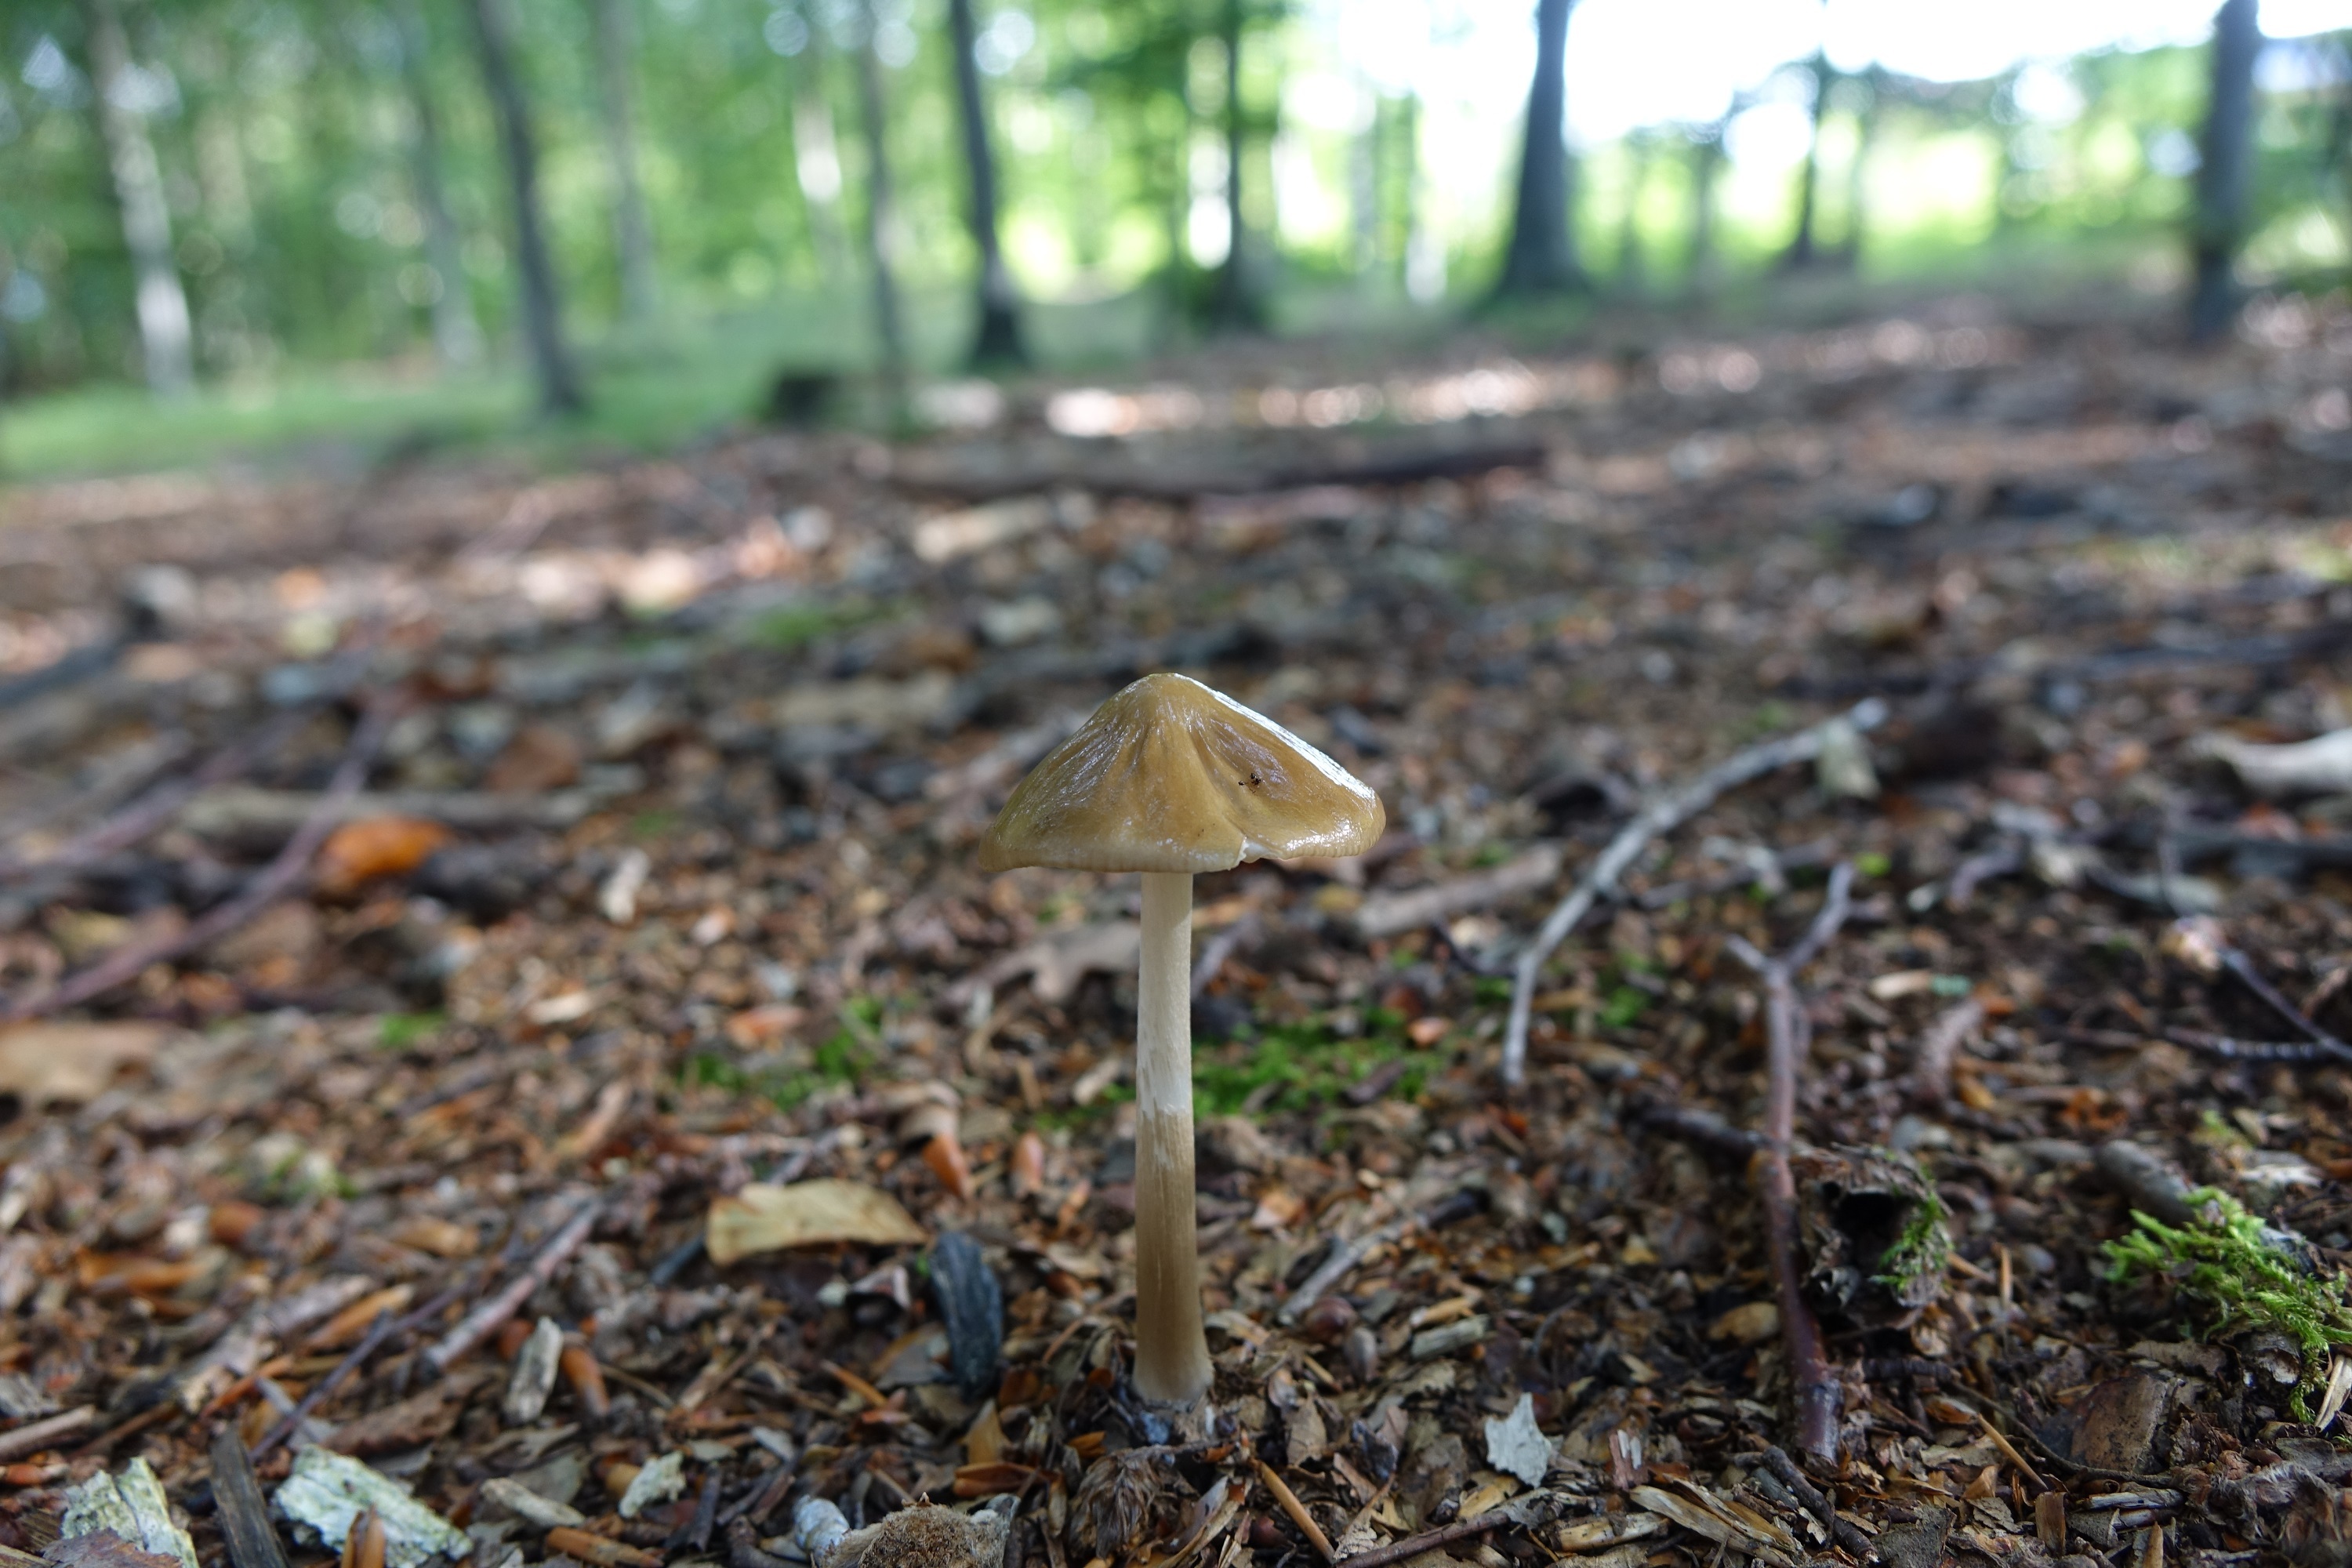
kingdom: Fungi
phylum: Basidiomycota
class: Agaricomycetes
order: Agaricales
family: Physalacriaceae
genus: Hymenopellis
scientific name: Hymenopellis radicata
